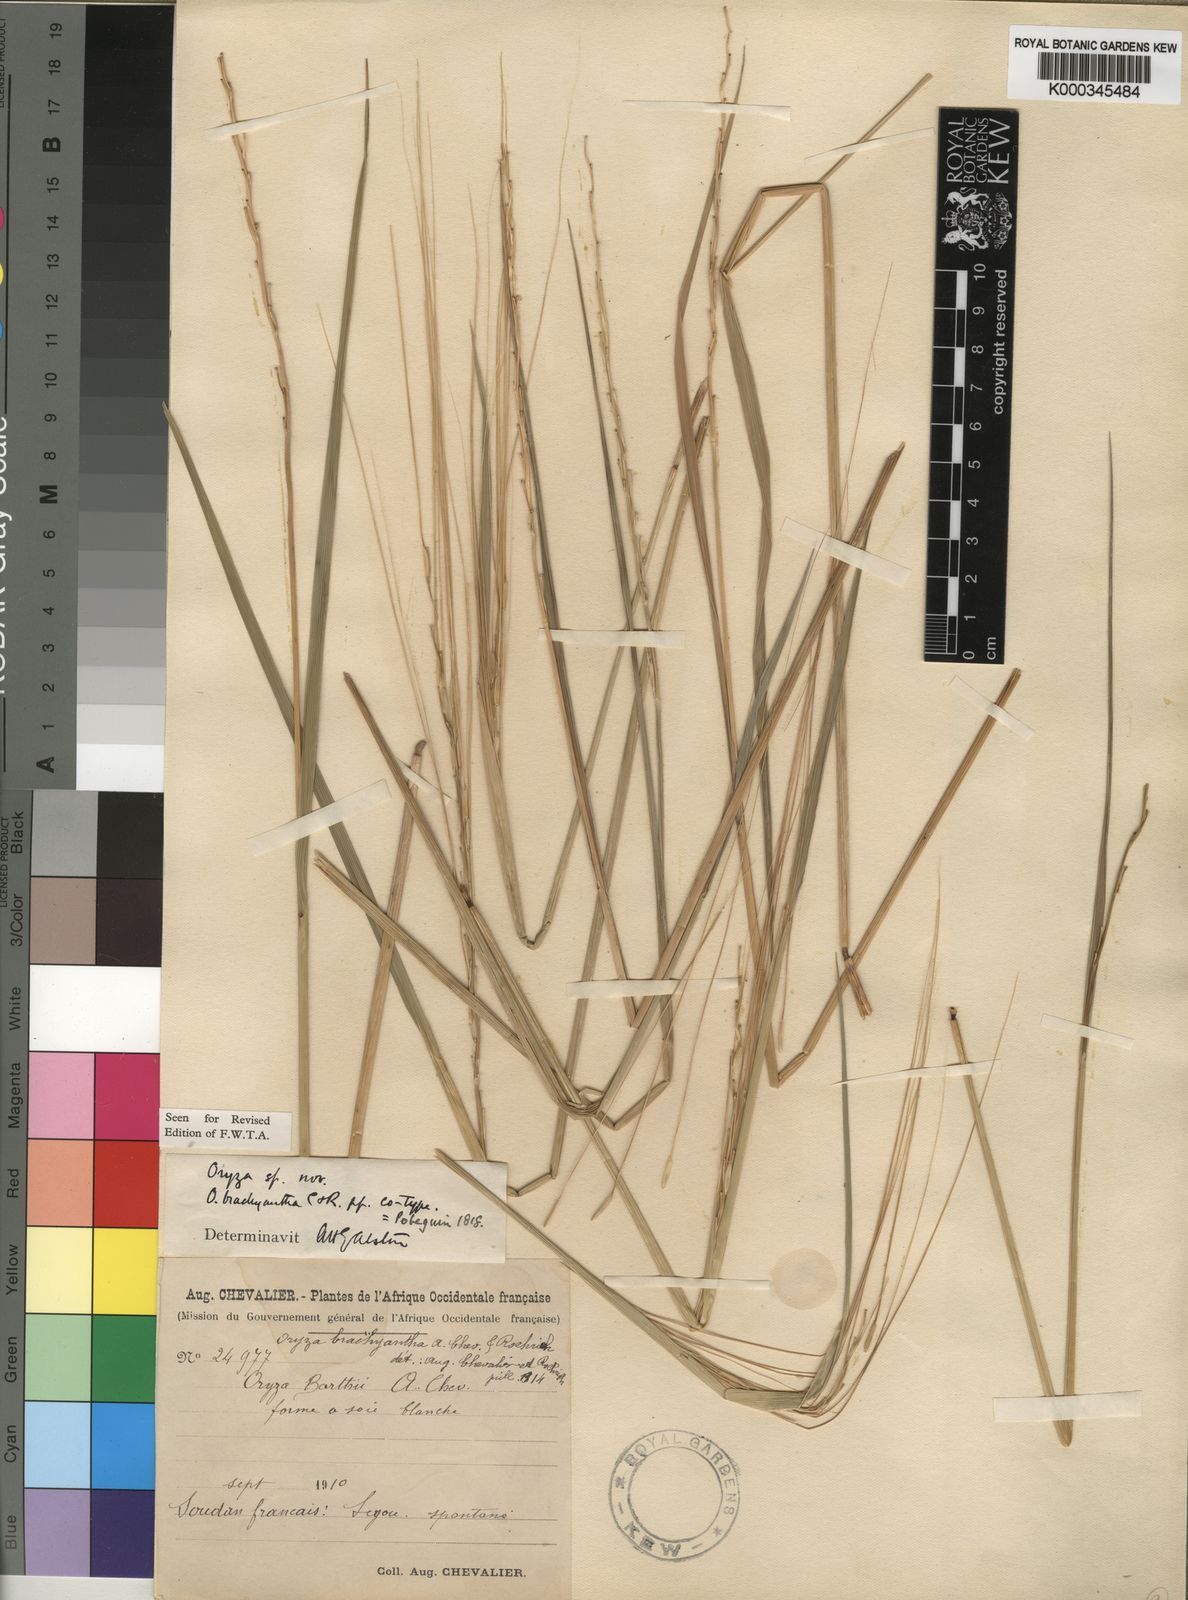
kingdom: Plantae
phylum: Tracheophyta
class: Liliopsida
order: Poales
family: Poaceae
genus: Oryza
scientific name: Oryza brachyantha
